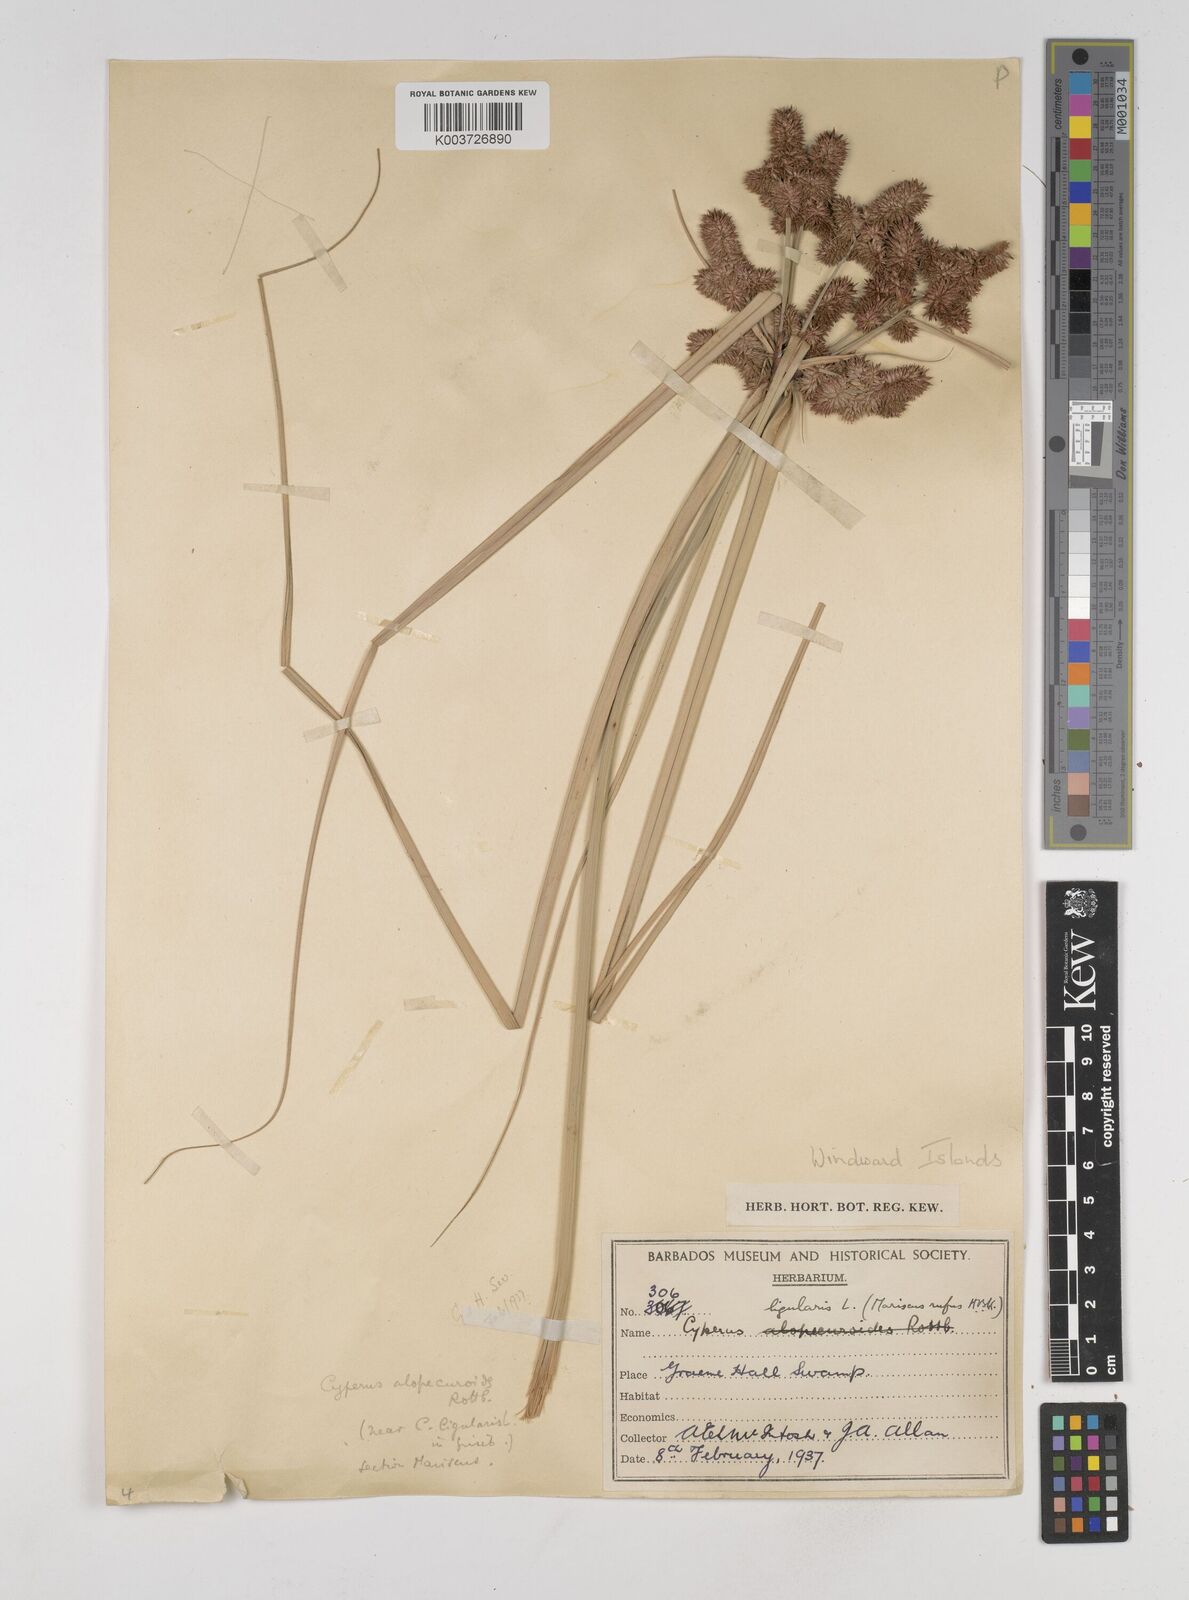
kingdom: Plantae
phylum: Tracheophyta
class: Liliopsida
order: Poales
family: Cyperaceae
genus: Cyperus
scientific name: Cyperus ligularis
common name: Swamp flat sedge
